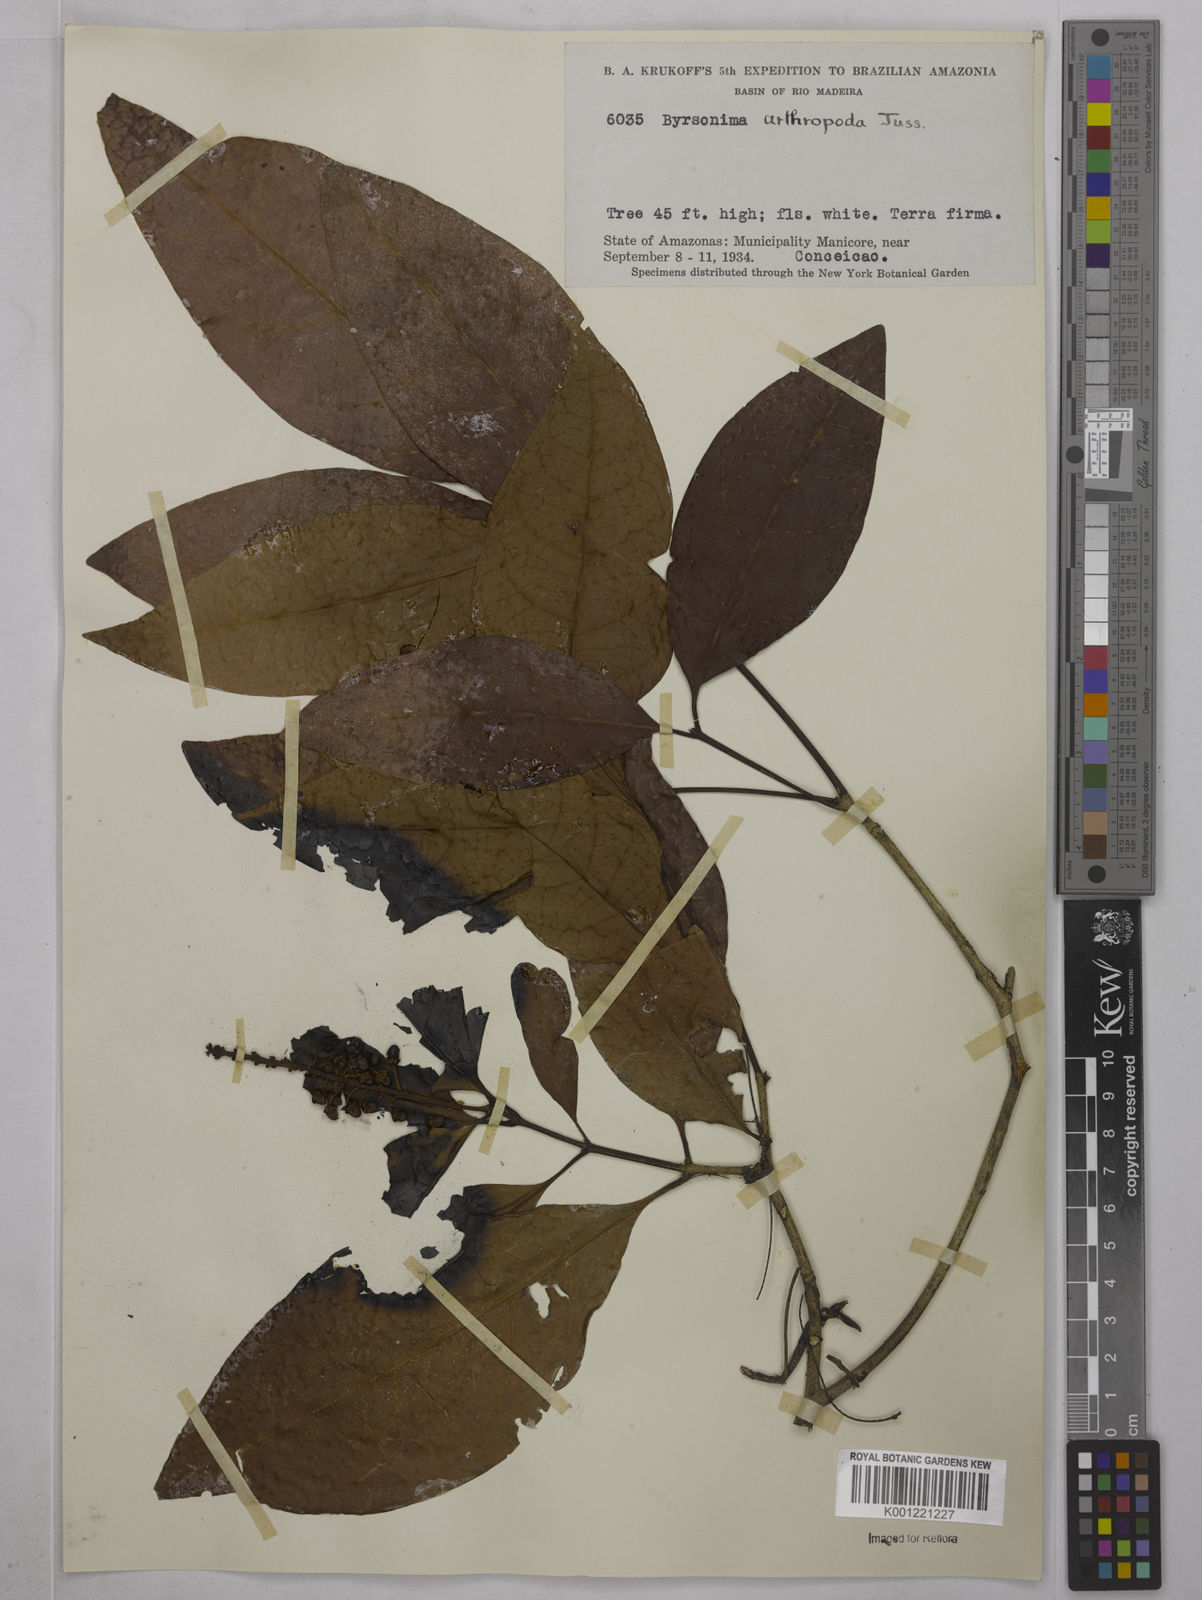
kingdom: Plantae
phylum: Tracheophyta
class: Magnoliopsida
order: Malpighiales
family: Malpighiaceae
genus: Byrsonima
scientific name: Byrsonima arthropoda
